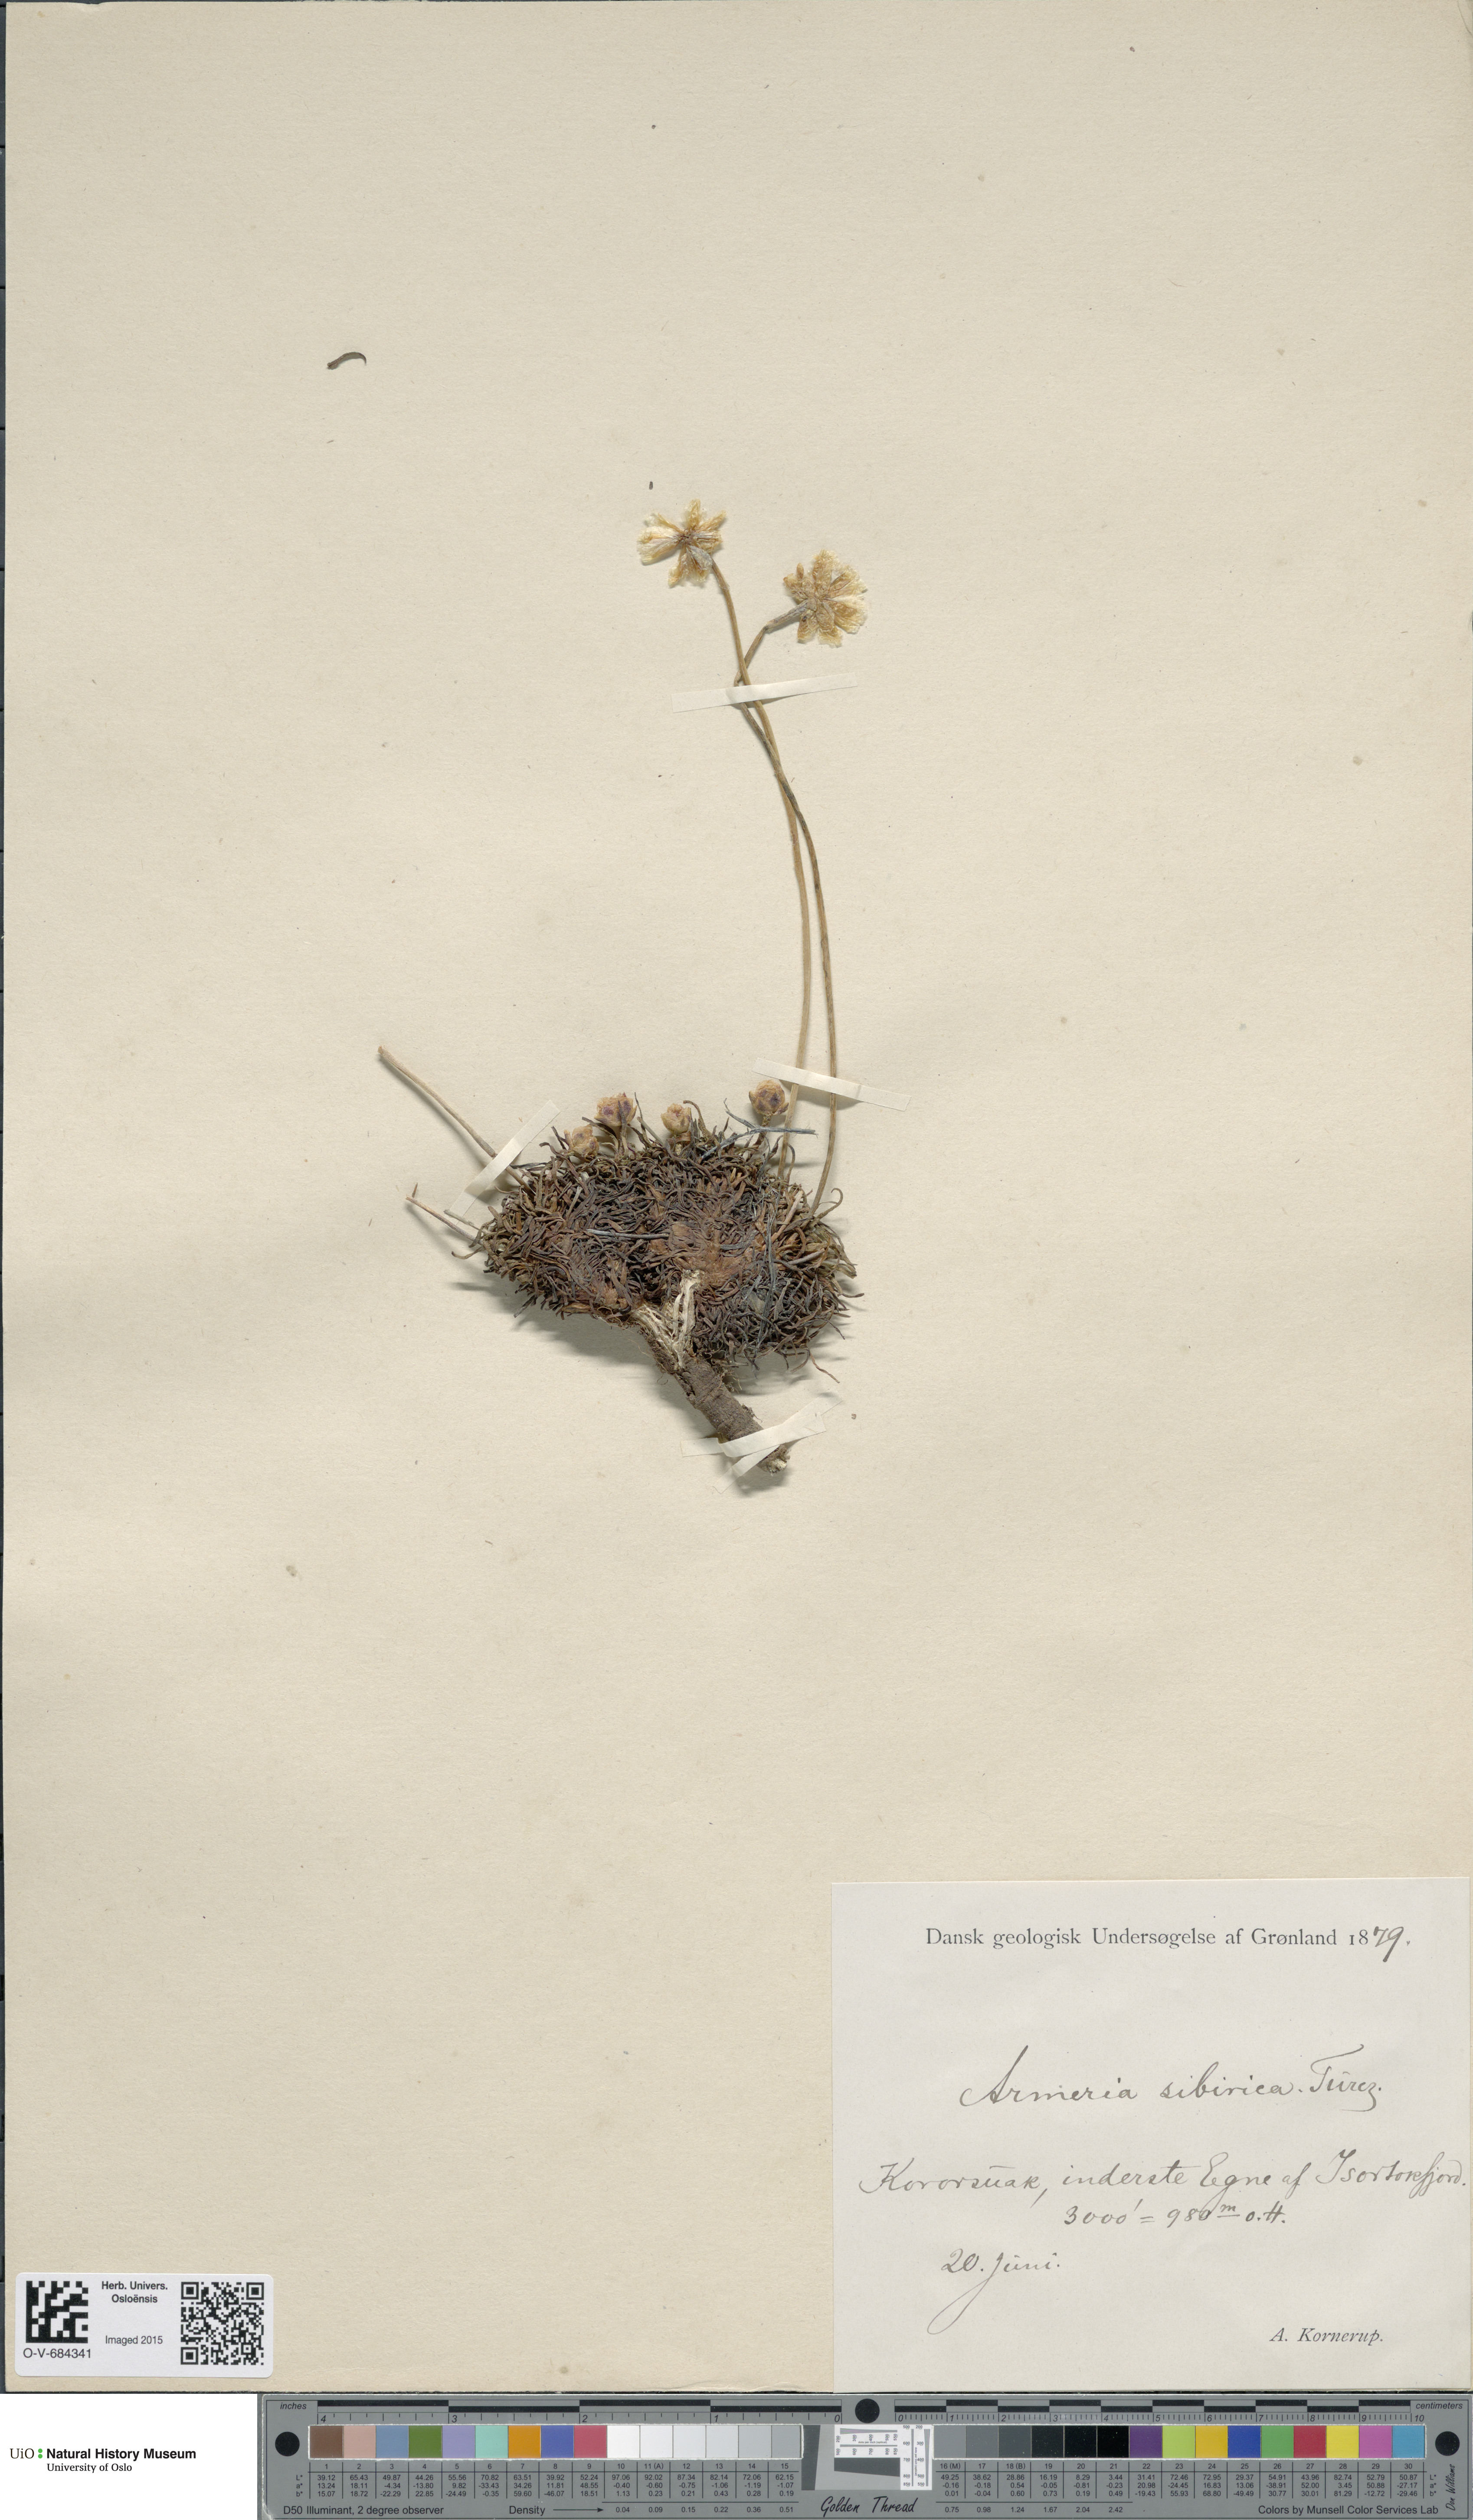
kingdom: Plantae
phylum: Tracheophyta
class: Magnoliopsida
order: Caryophyllales
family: Plumbaginaceae
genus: Armeria
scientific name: Armeria maritima
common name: Thrift
